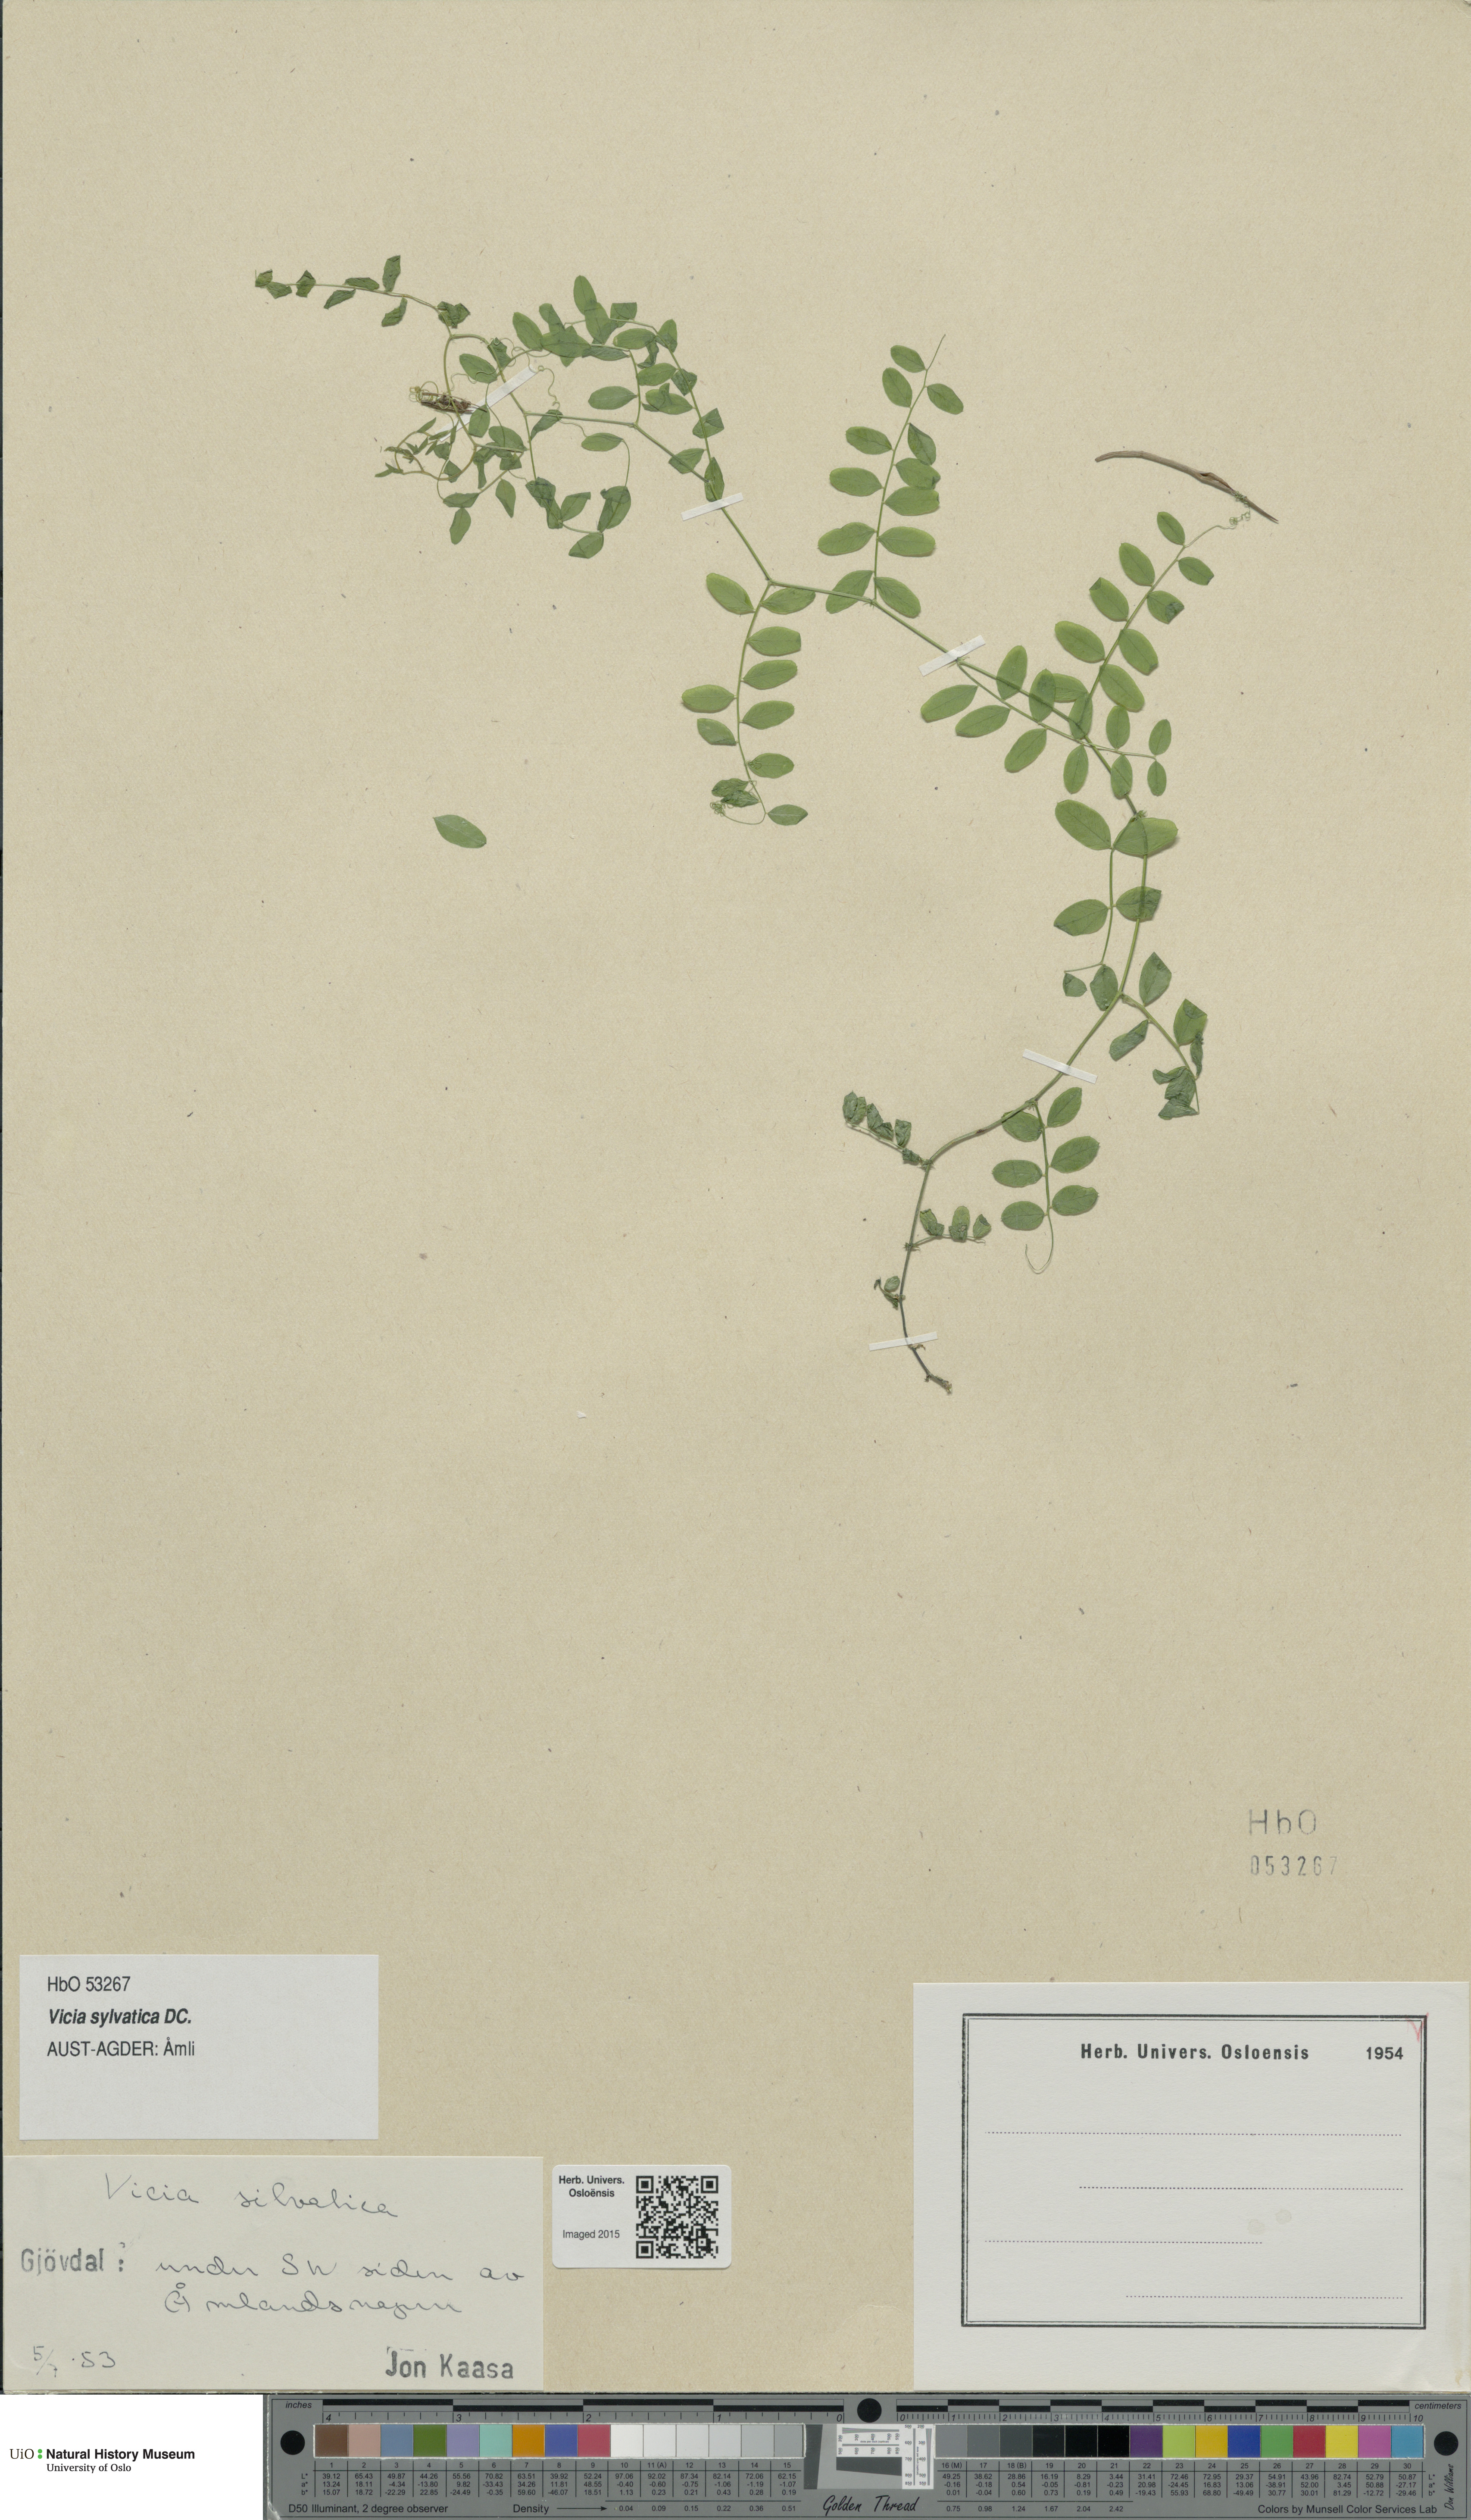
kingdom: Plantae
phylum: Tracheophyta
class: Magnoliopsida
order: Fabales
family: Fabaceae
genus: Vicia
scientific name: Vicia sylvatica
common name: Wood vetch
